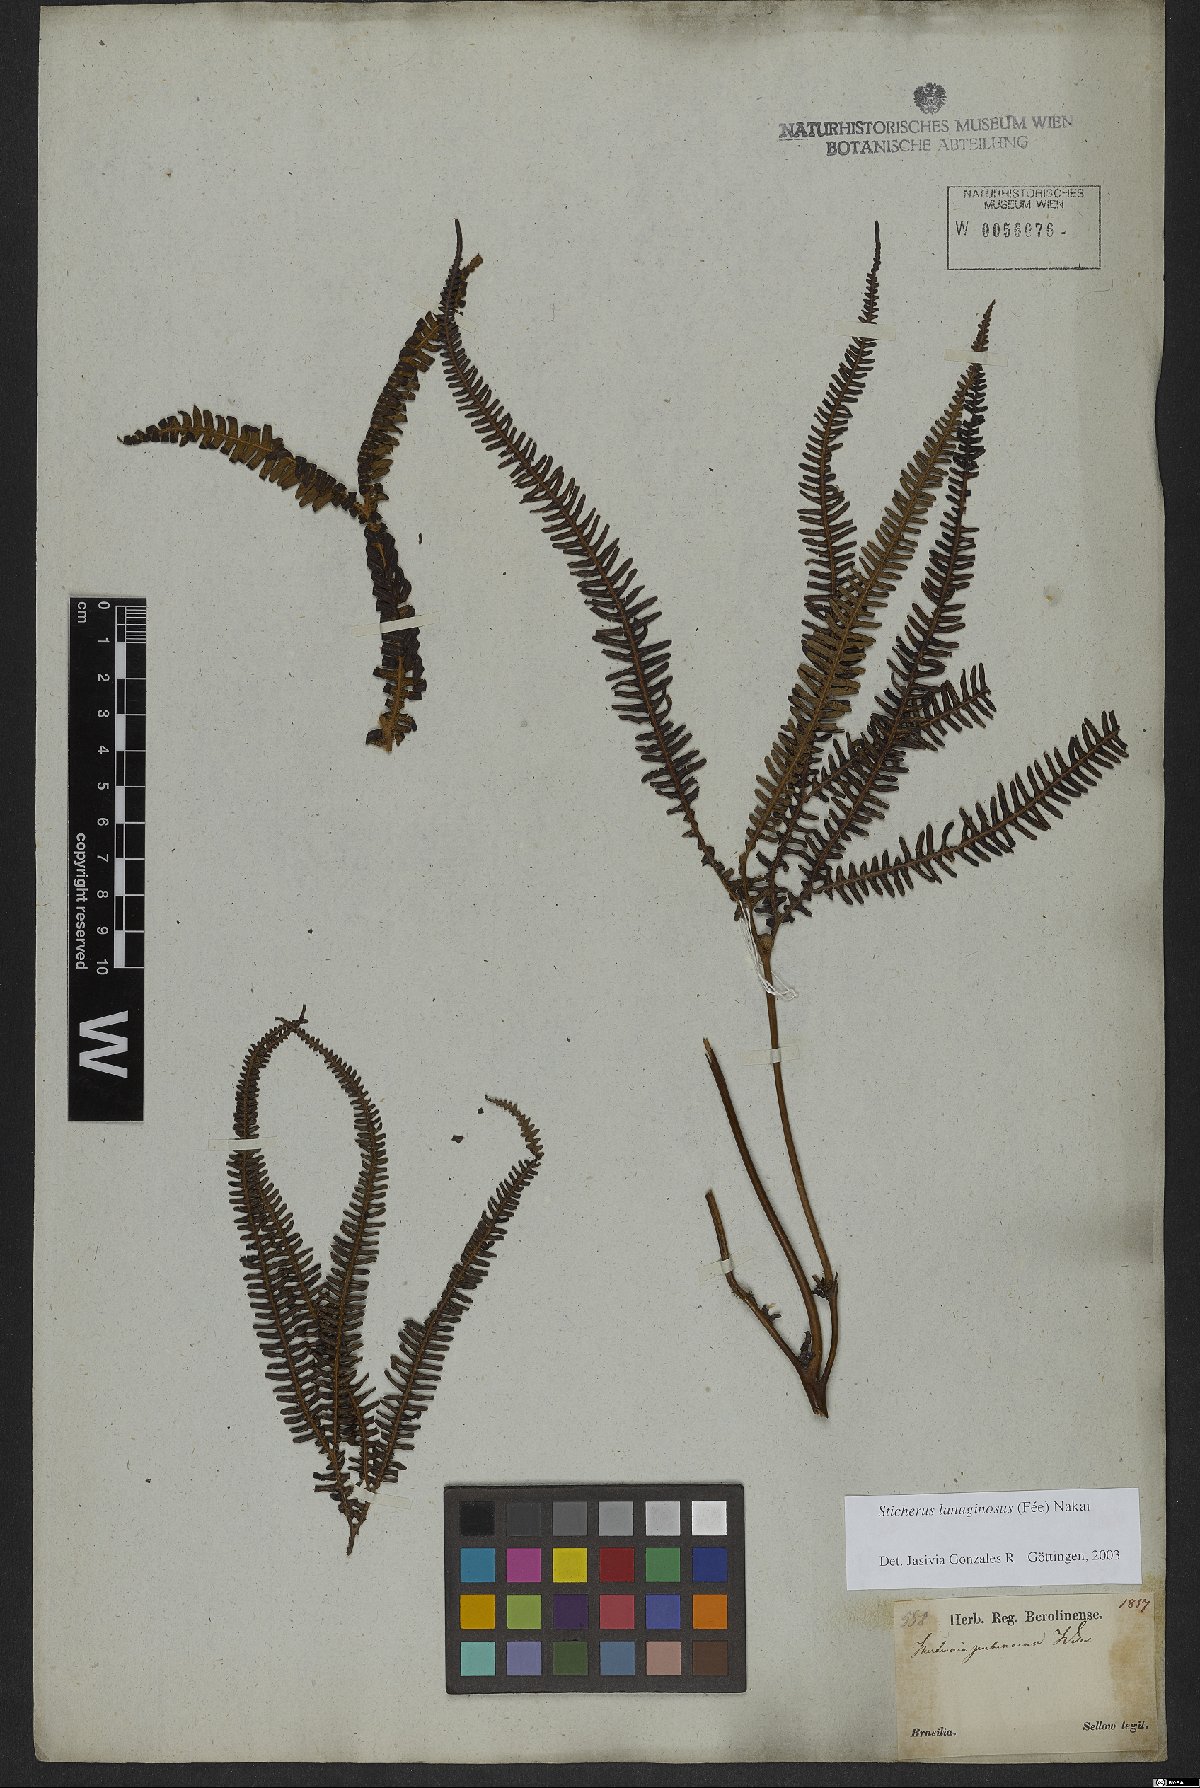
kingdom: Plantae
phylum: Tracheophyta
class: Polypodiopsida
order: Gleicheniales
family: Gleicheniaceae
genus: Sticherus
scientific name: Sticherus lanuginosus
